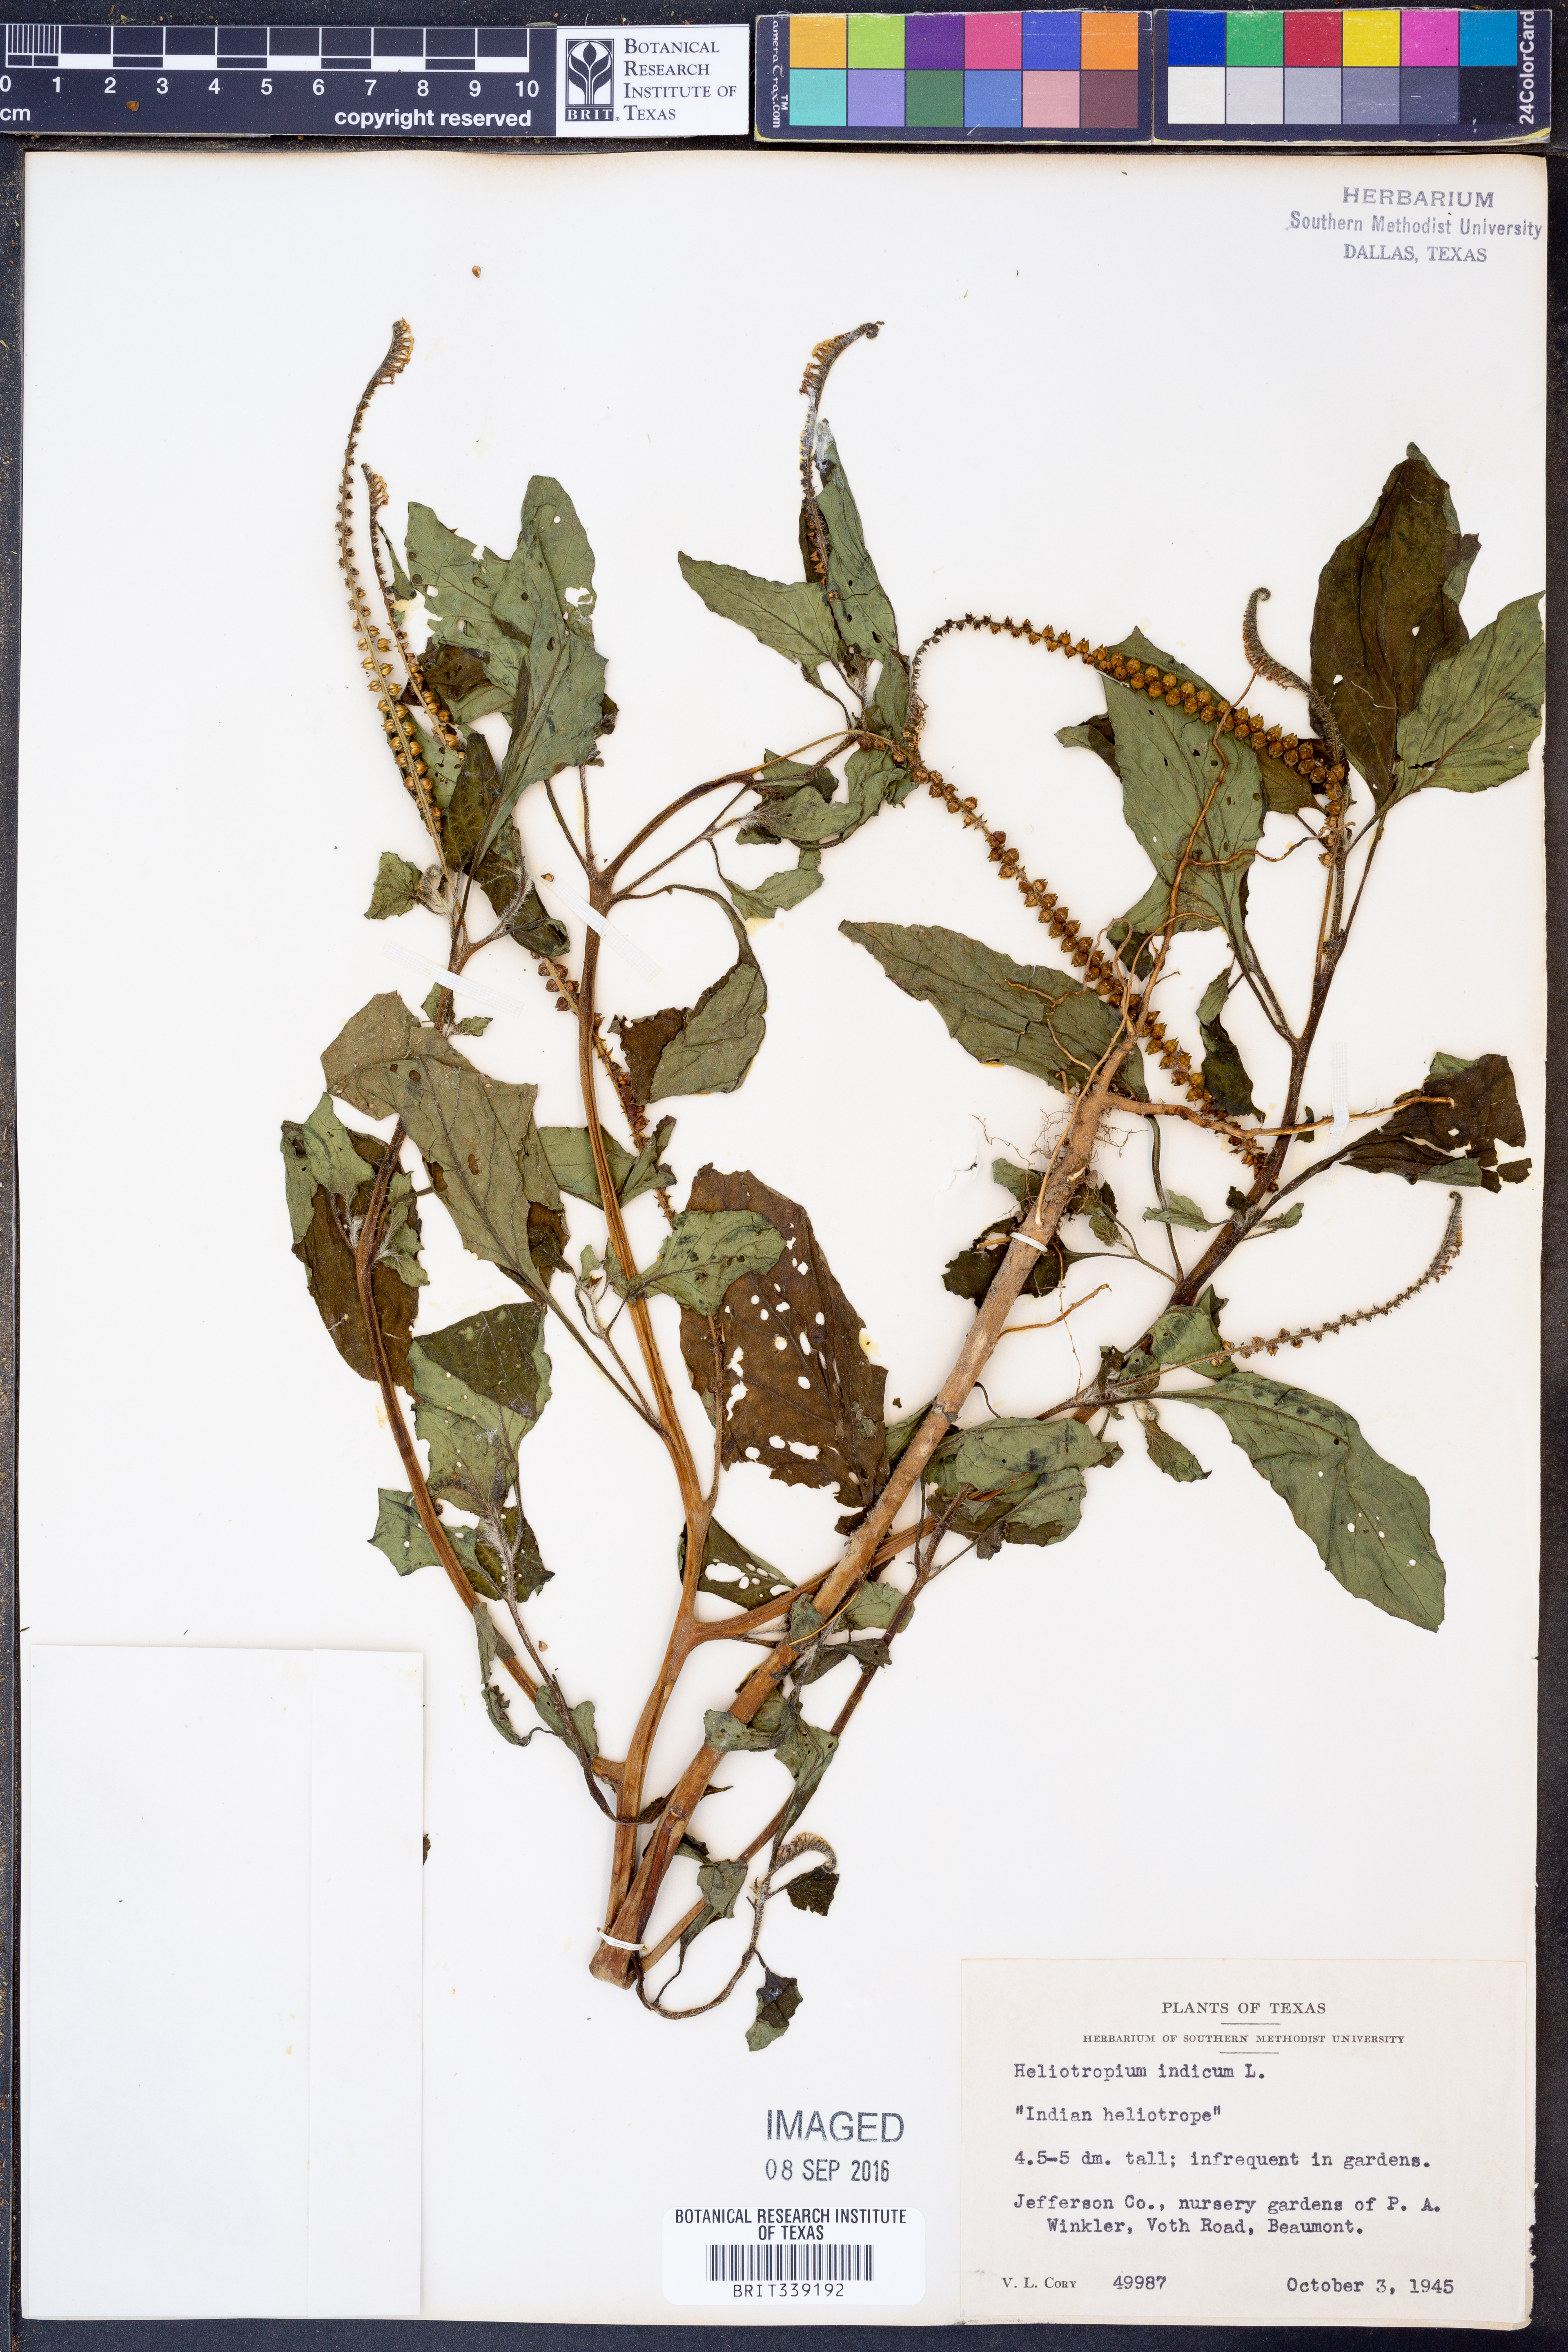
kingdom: Plantae
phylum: Tracheophyta
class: Magnoliopsida
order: Boraginales
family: Heliotropiaceae
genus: Heliotropium
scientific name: Heliotropium indicum
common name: Indian heliotrope
